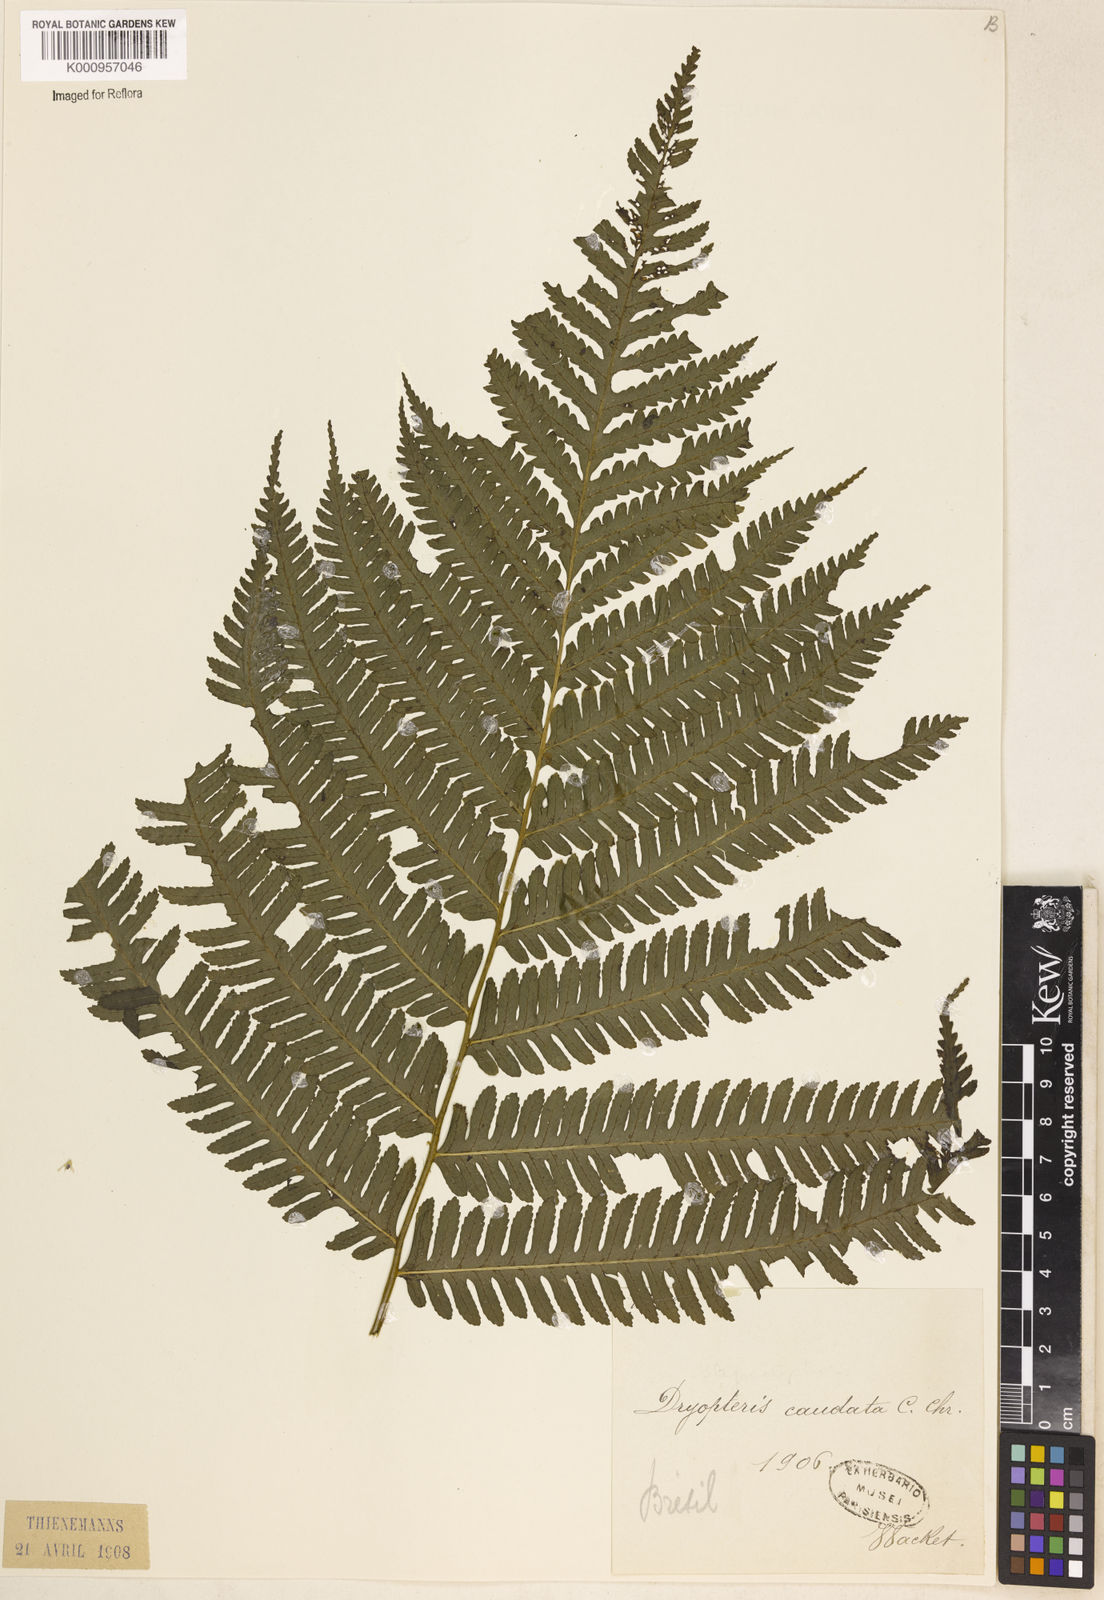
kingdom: Plantae
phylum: Tracheophyta
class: Polypodiopsida
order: Polypodiales
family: Dryopteridaceae
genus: Stigmatopteris
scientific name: Stigmatopteris caudata
